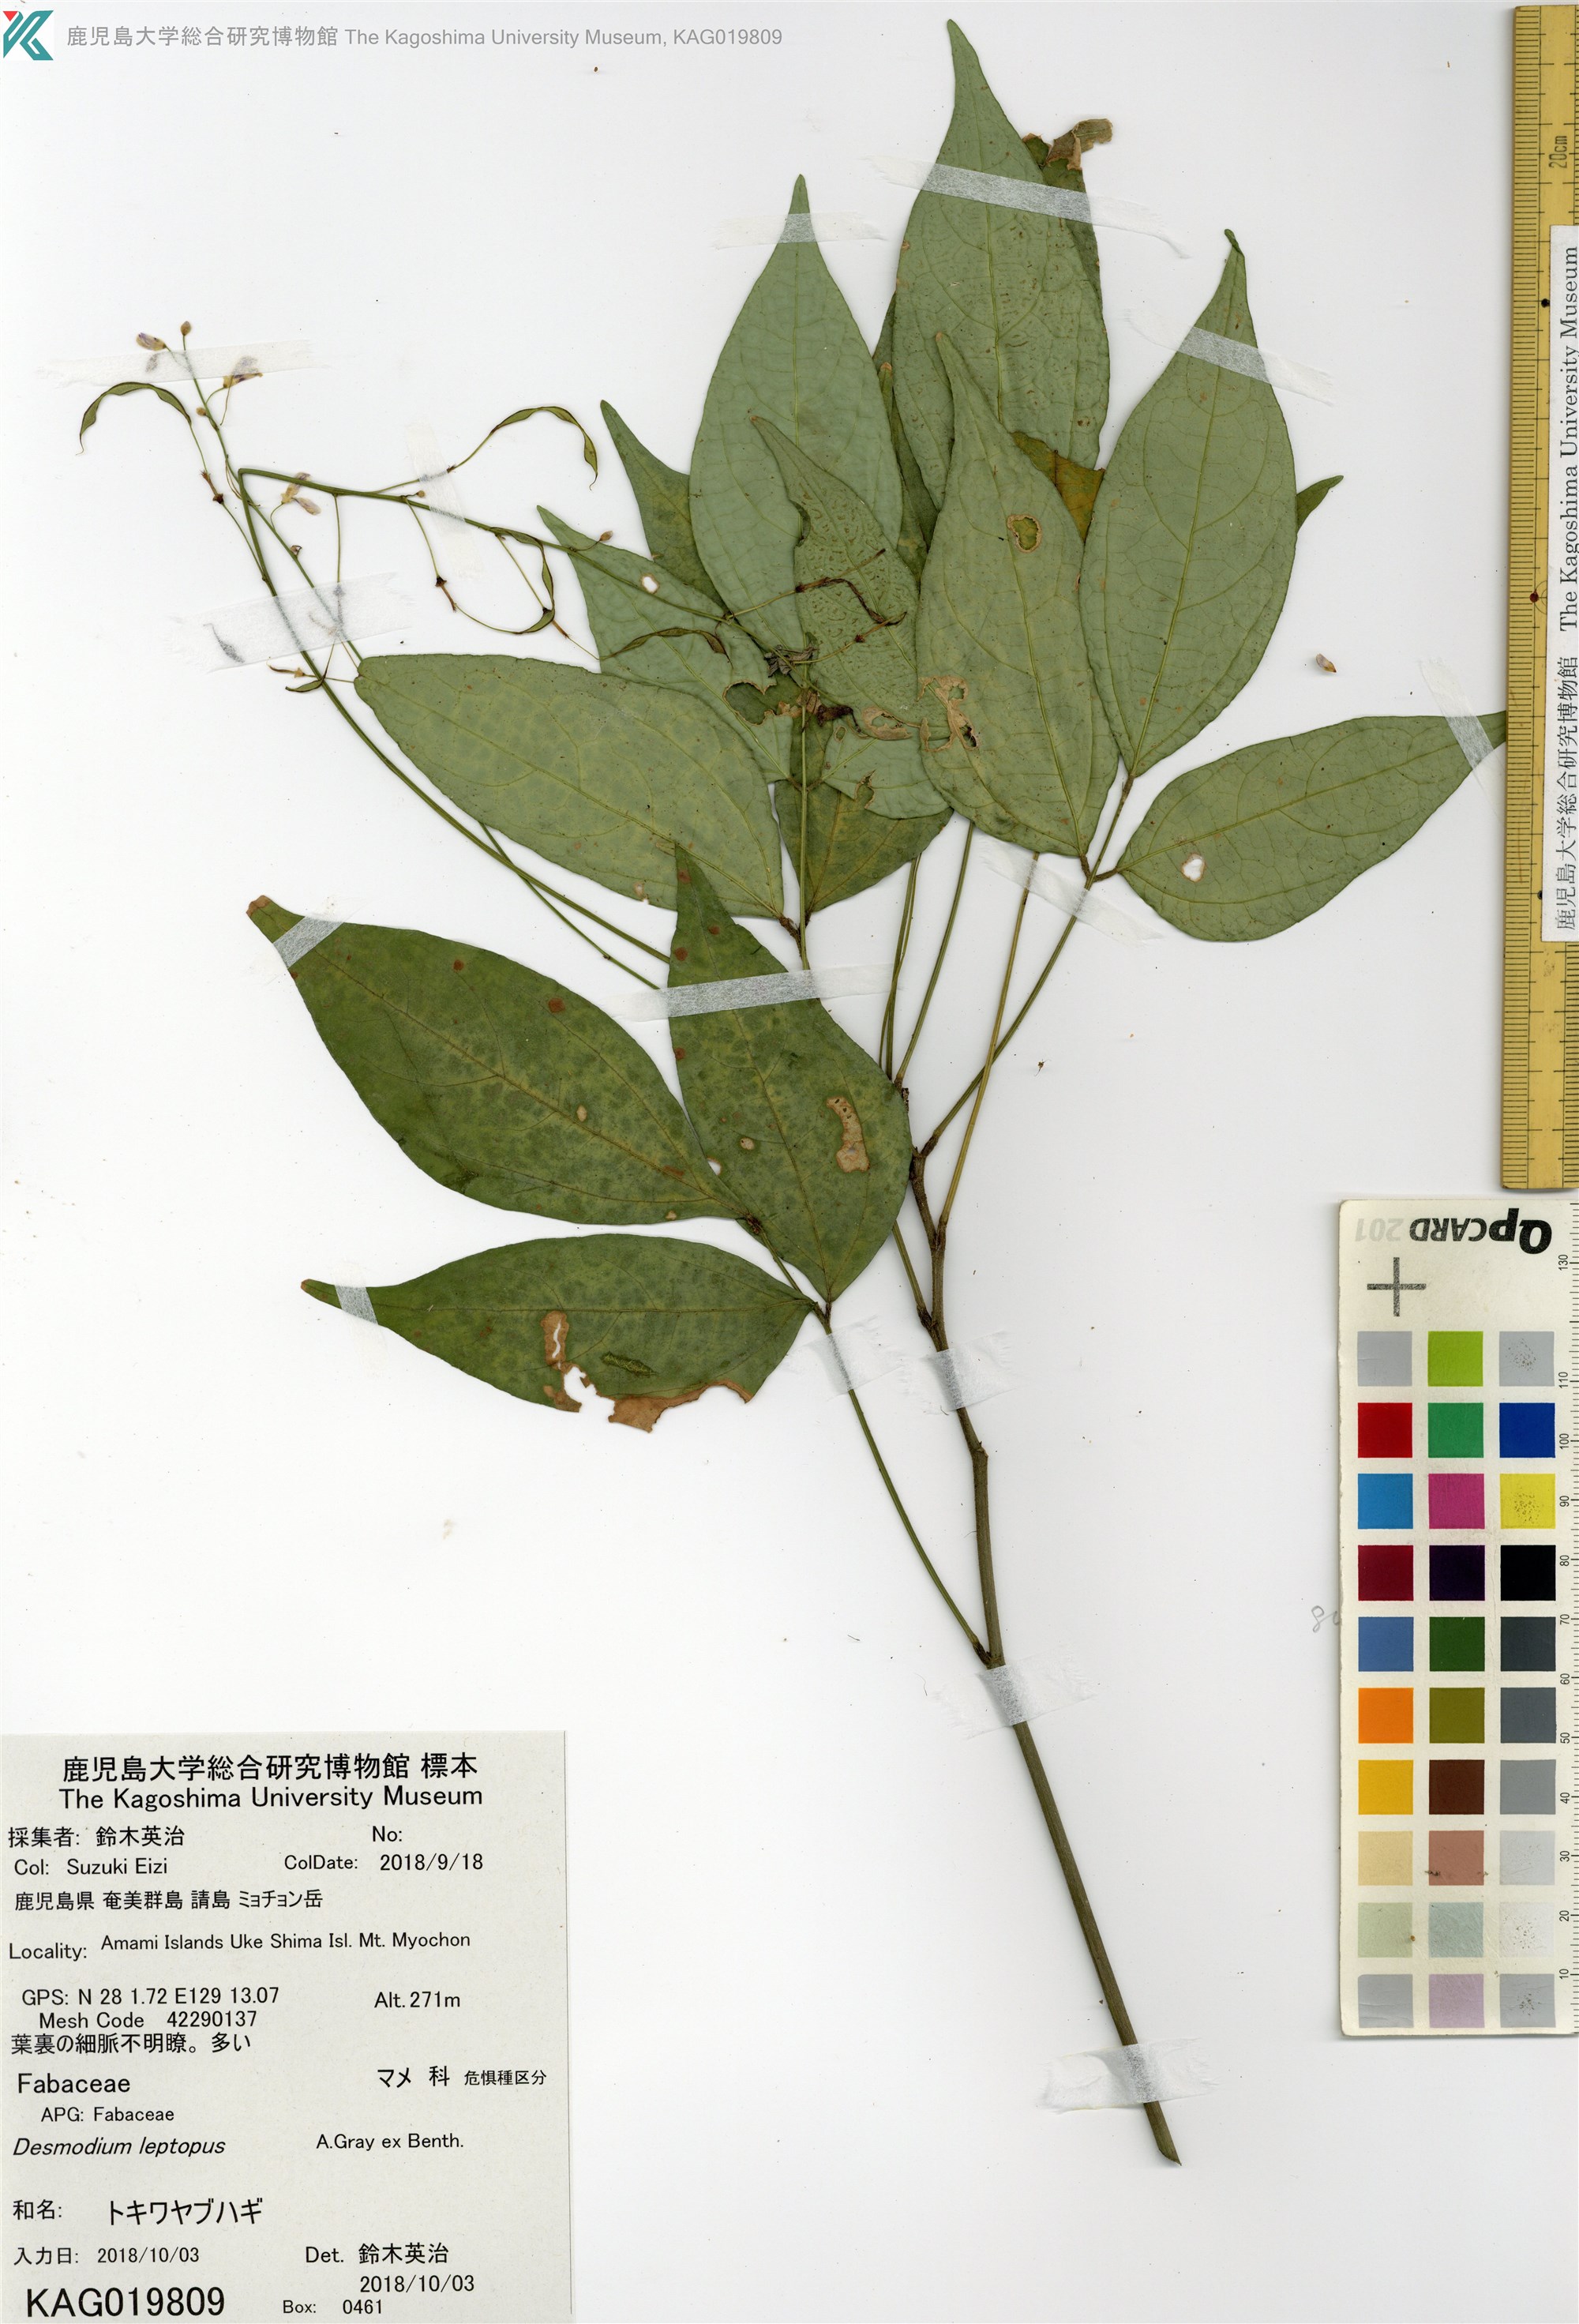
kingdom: Plantae
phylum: Tracheophyta
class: Magnoliopsida
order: Fabales
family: Fabaceae
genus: Hylodesmum
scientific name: Hylodesmum leptopus
